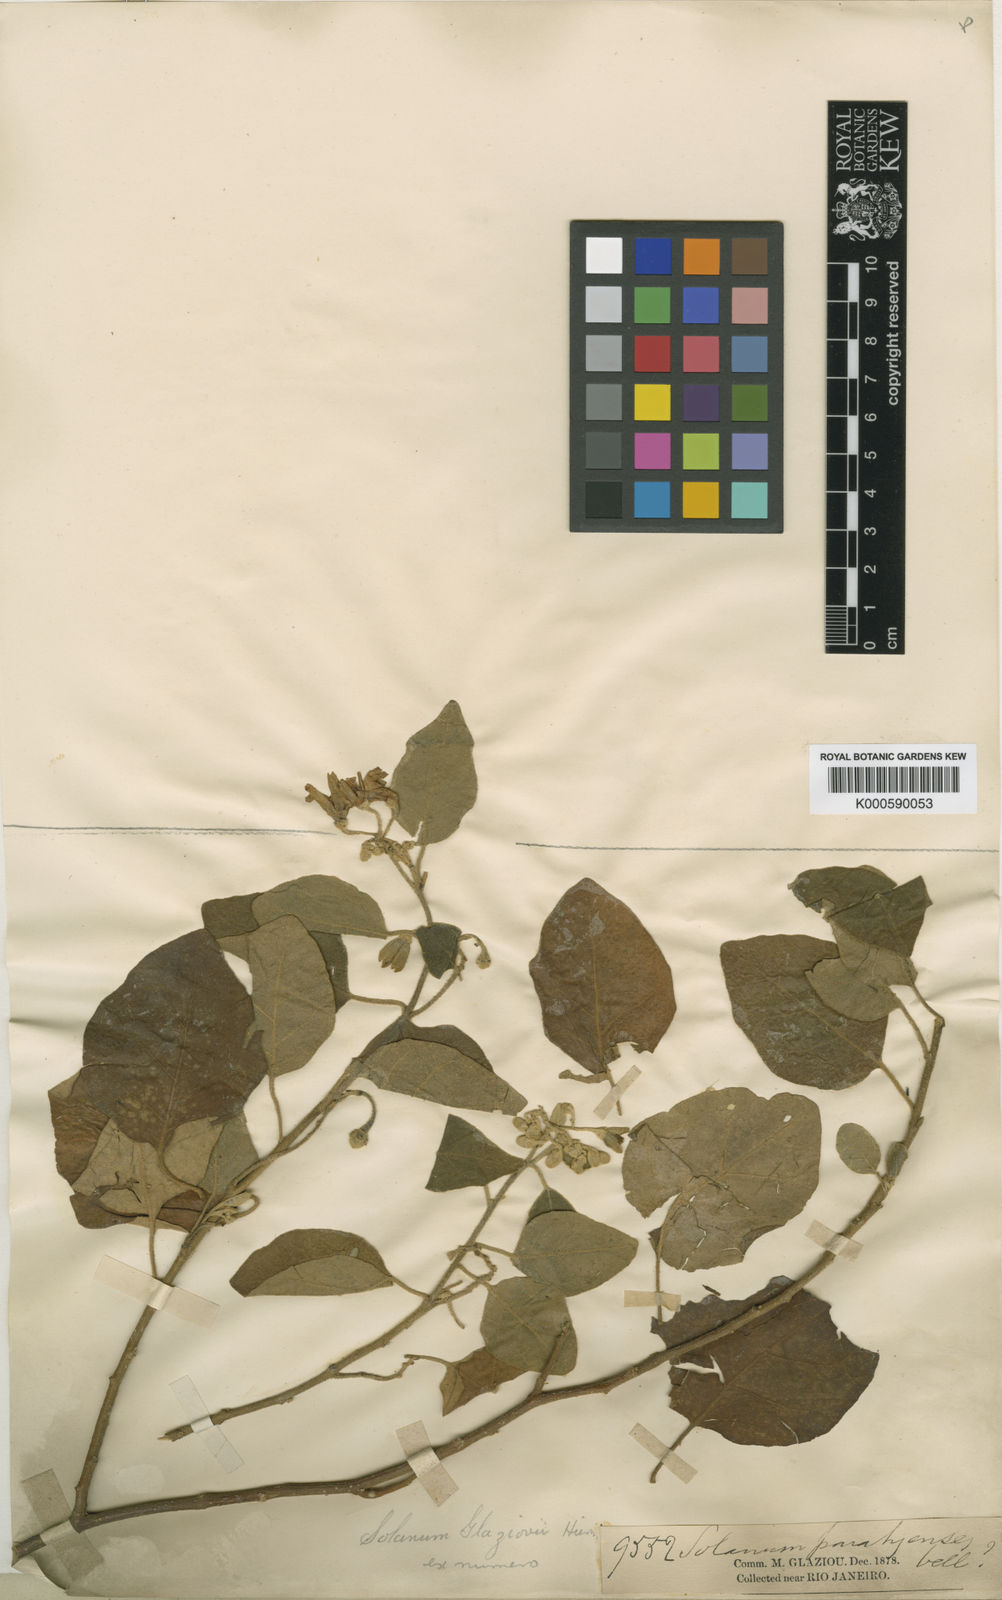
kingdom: Plantae
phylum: Tracheophyta
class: Magnoliopsida
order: Solanales
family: Solanaceae
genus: Solanum
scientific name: Solanum jussiaei
